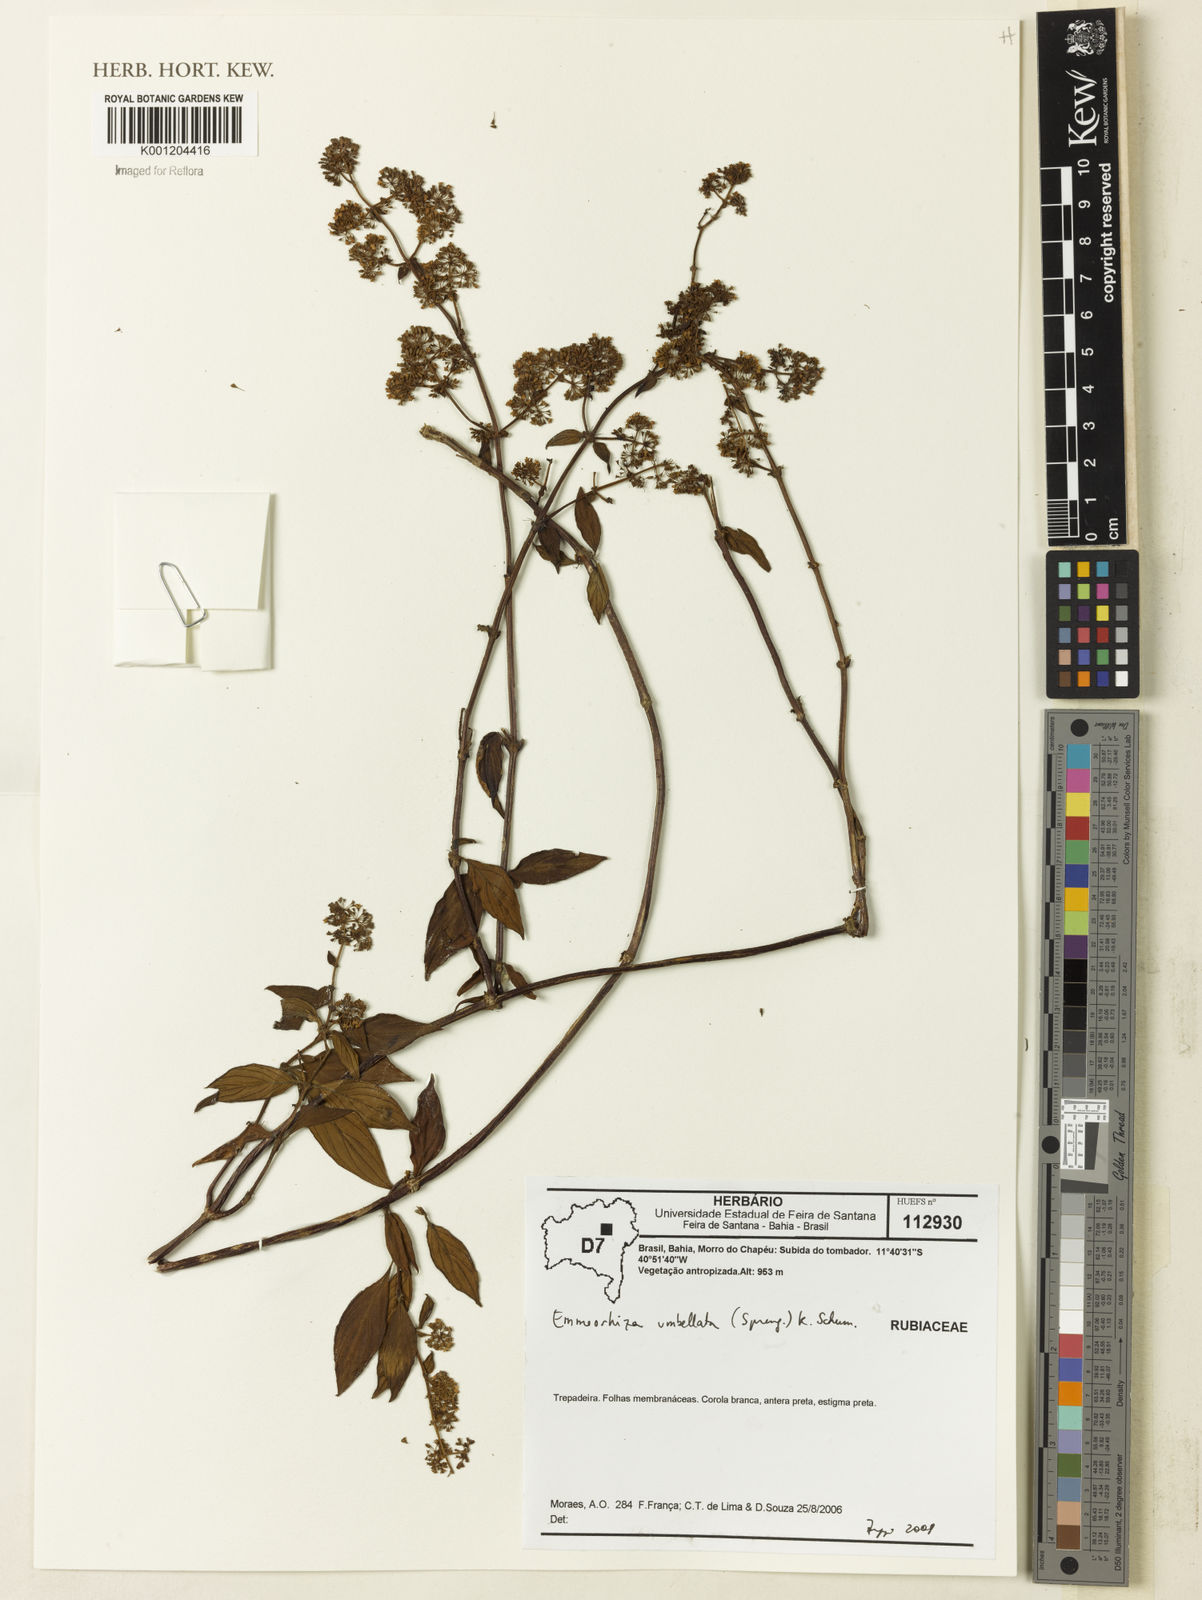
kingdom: Plantae
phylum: Tracheophyta
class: Magnoliopsida
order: Gentianales
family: Rubiaceae
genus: Emmeorhiza
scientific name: Emmeorhiza umbellata
